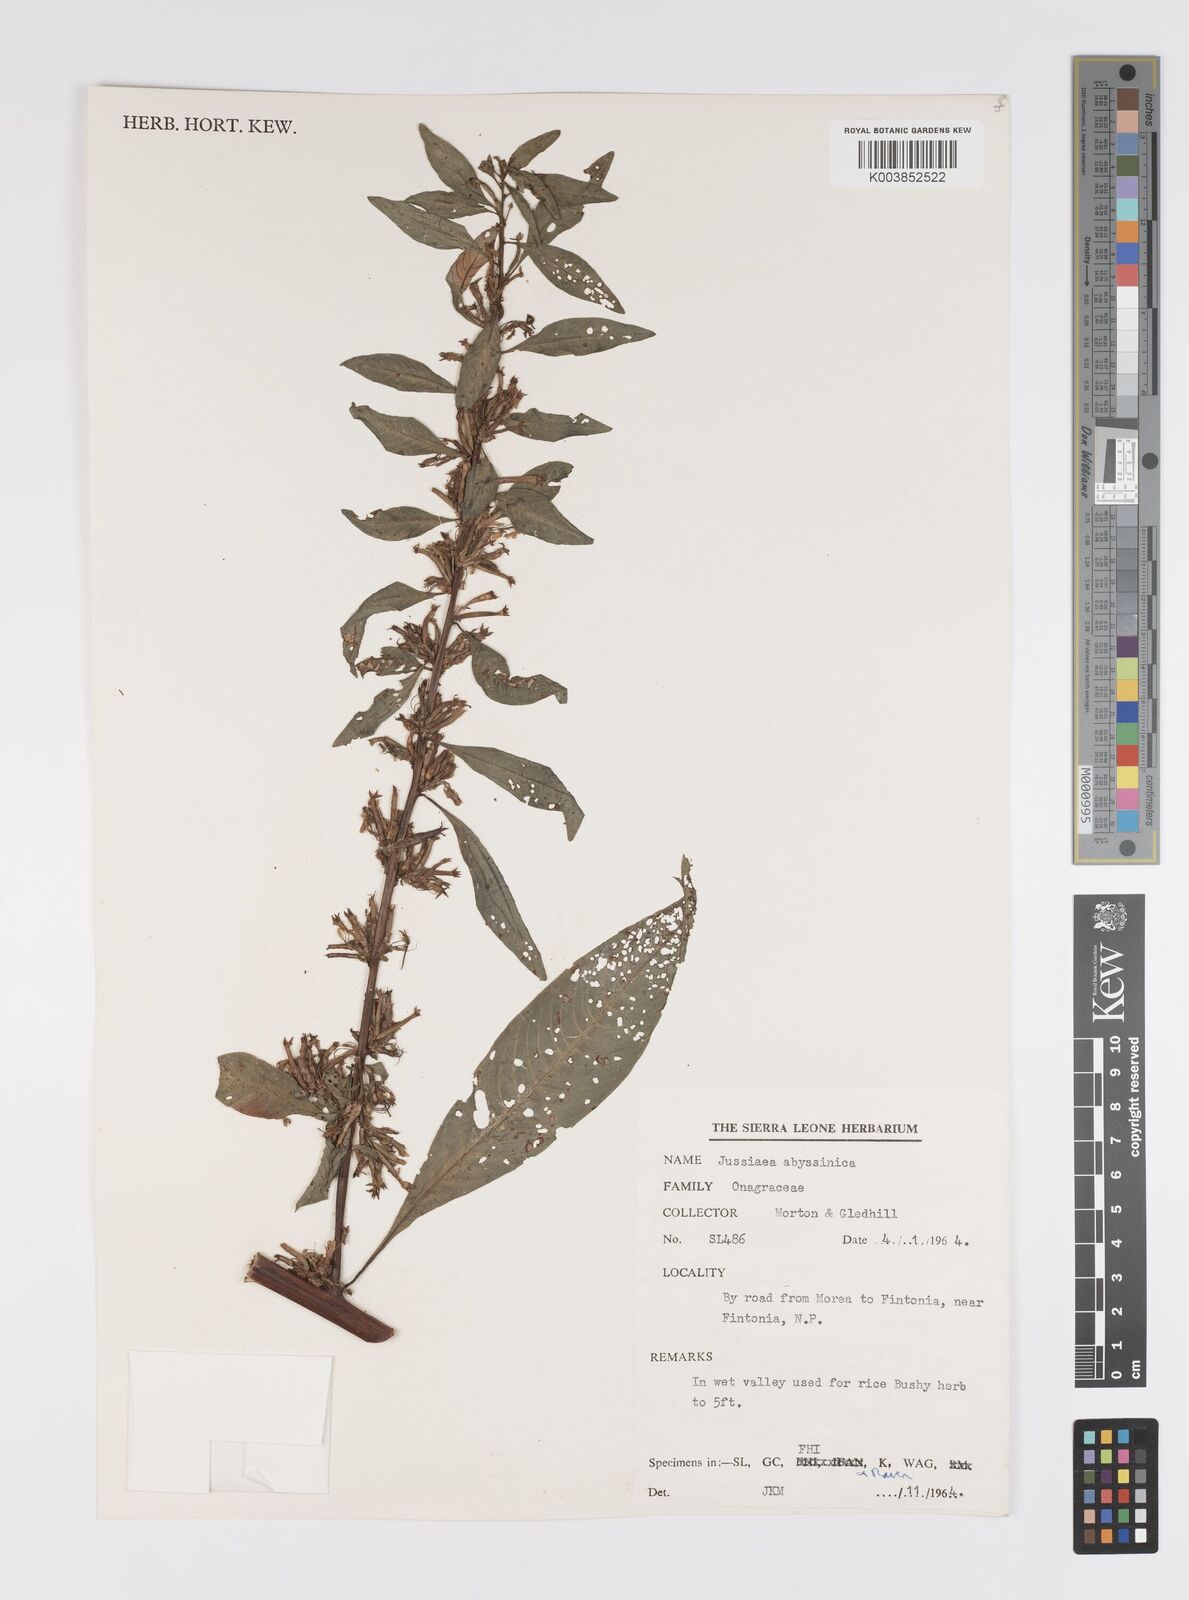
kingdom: Plantae
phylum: Tracheophyta
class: Magnoliopsida
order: Myrtales
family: Onagraceae
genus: Ludwigia
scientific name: Ludwigia abyssinica
